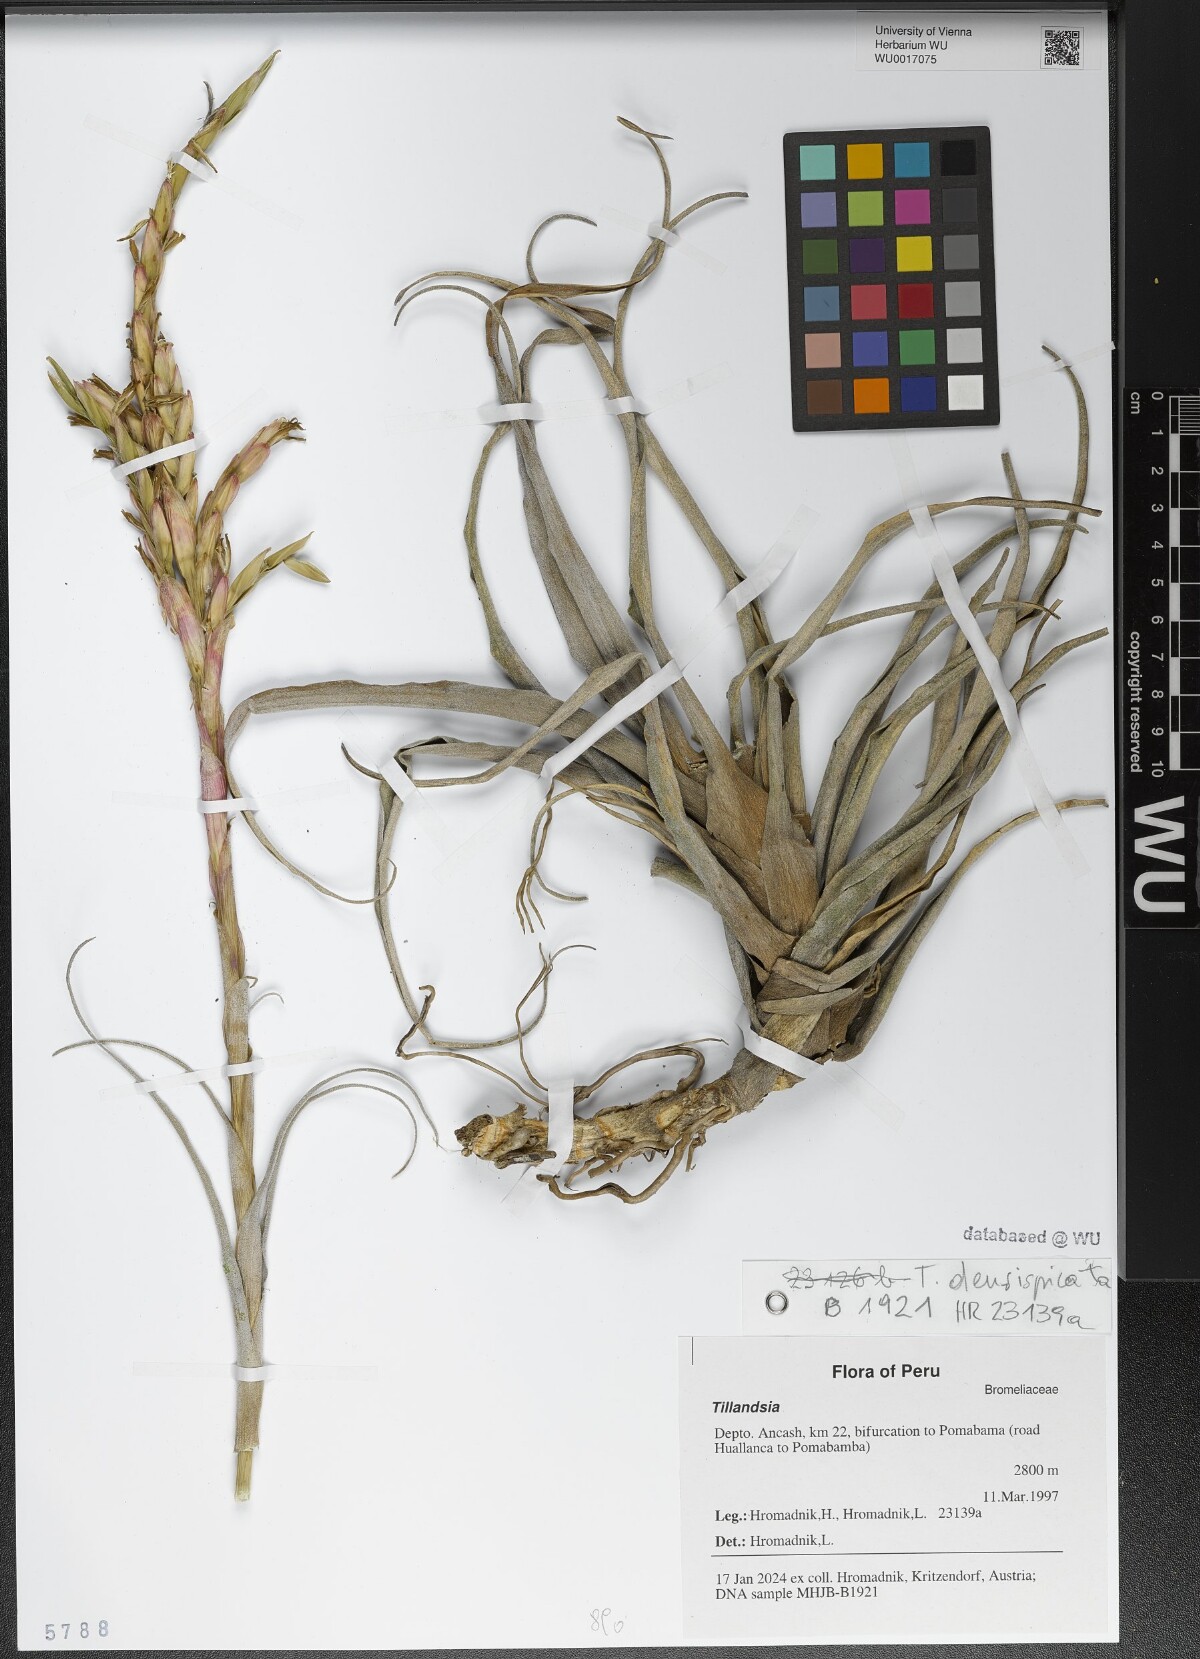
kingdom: Plantae
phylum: Tracheophyta
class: Liliopsida
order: Poales
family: Bromeliaceae
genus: Tillandsia
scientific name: Tillandsia
